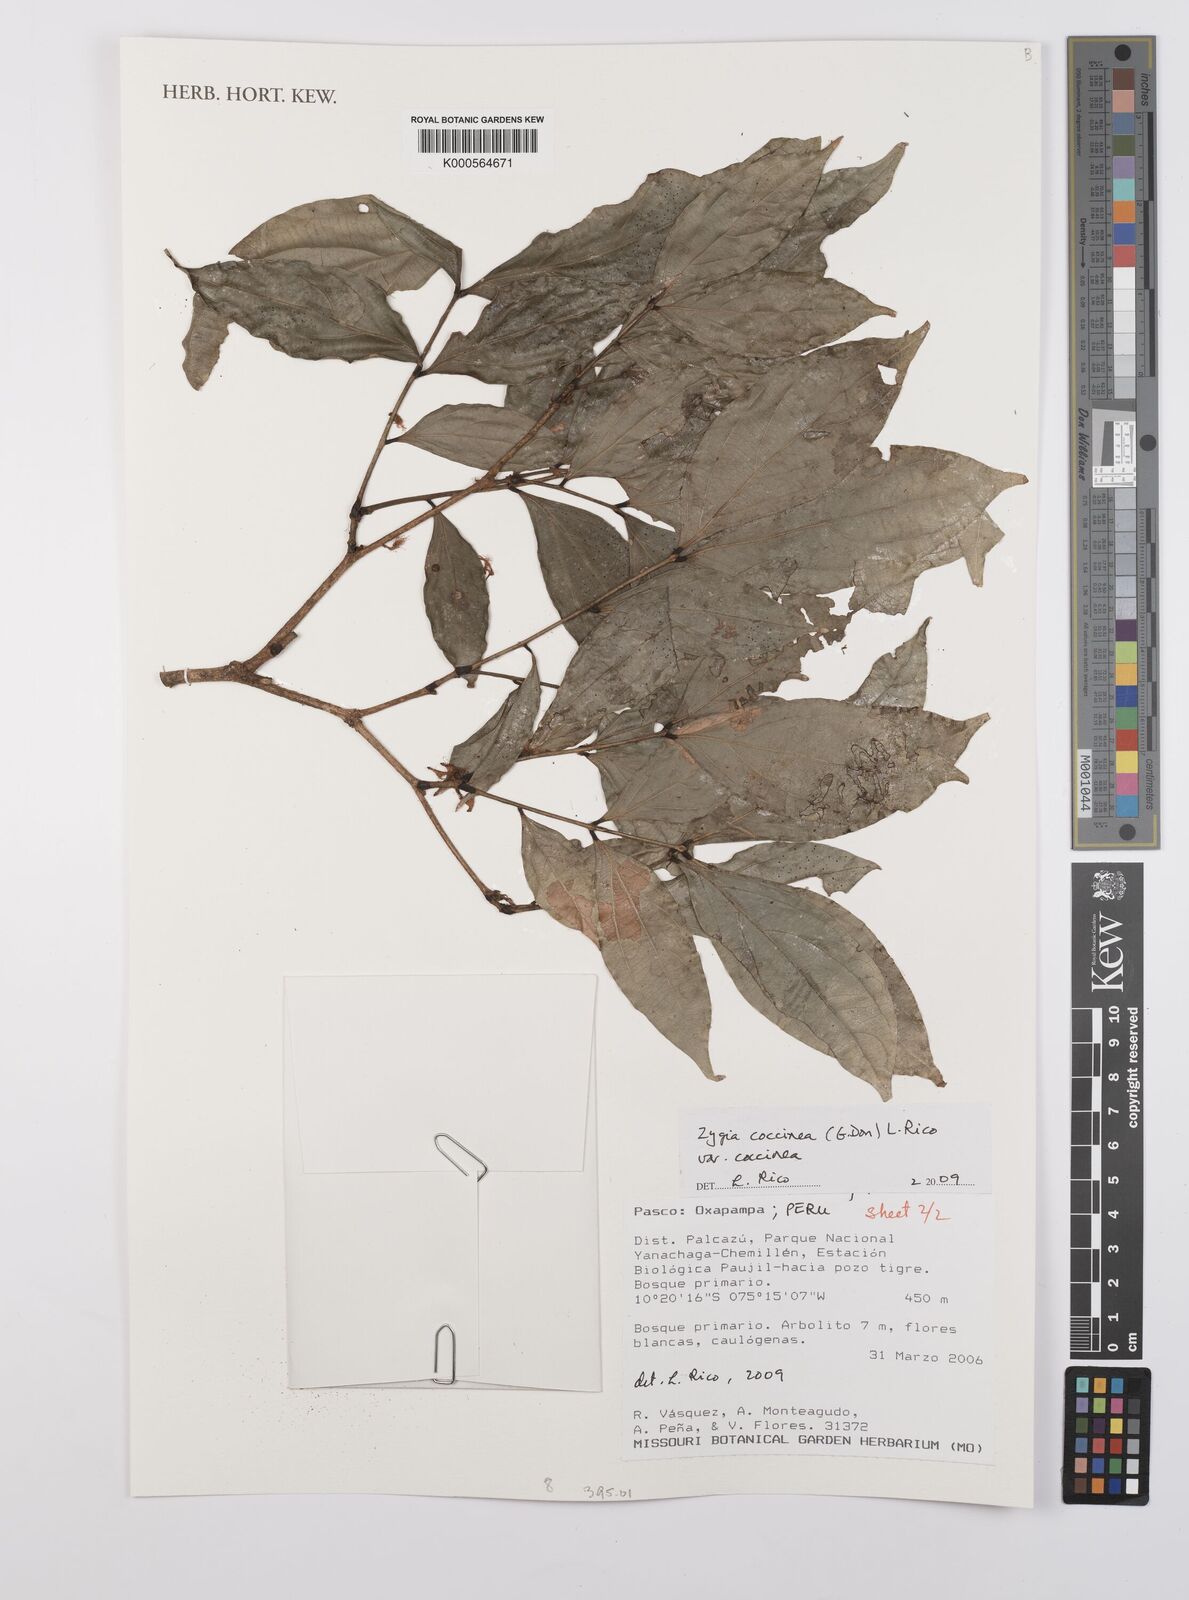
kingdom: Plantae
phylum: Tracheophyta
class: Magnoliopsida
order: Fabales
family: Fabaceae
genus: Zygia
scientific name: Zygia coccinea
